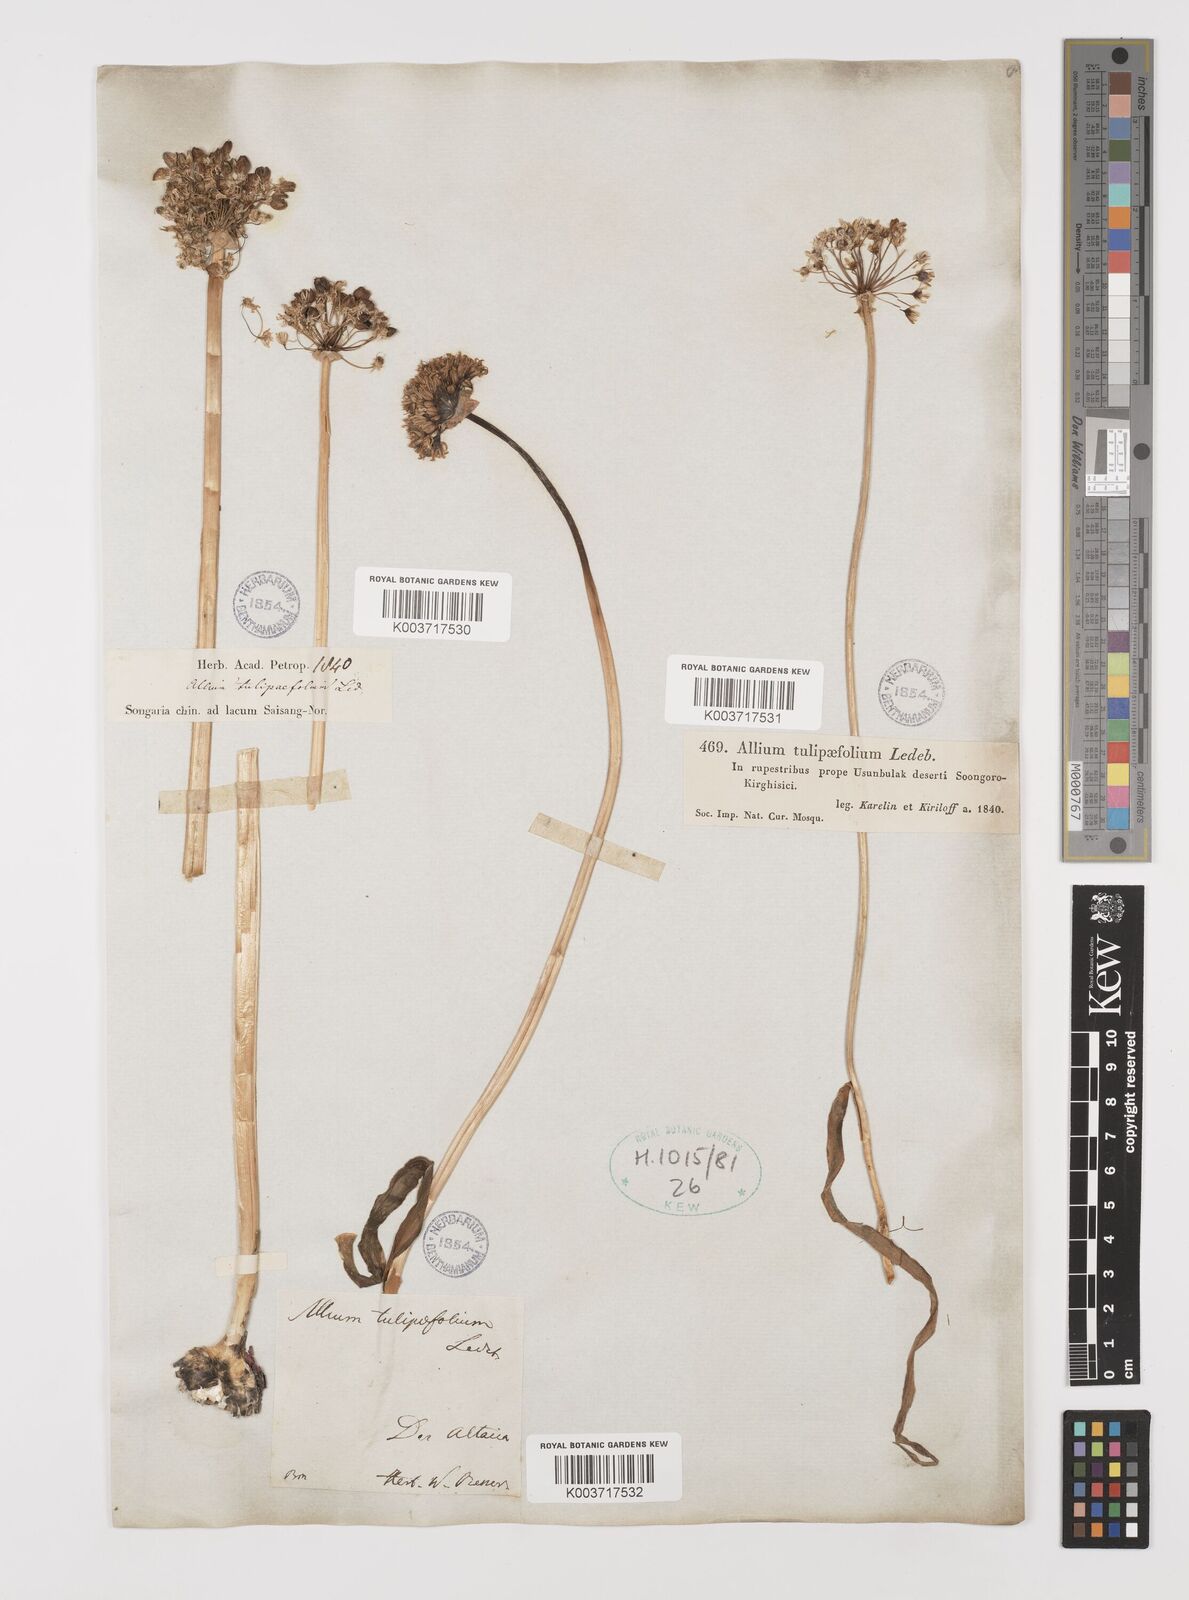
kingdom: Plantae
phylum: Tracheophyta
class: Liliopsida
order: Asparagales
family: Amaryllidaceae
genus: Allium
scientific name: Allium tulipifolium
